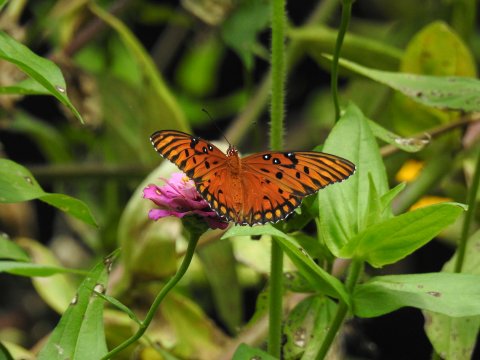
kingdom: Animalia
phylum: Arthropoda
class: Insecta
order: Lepidoptera
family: Nymphalidae
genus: Dione
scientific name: Dione vanillae
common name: Gulf Fritillary
